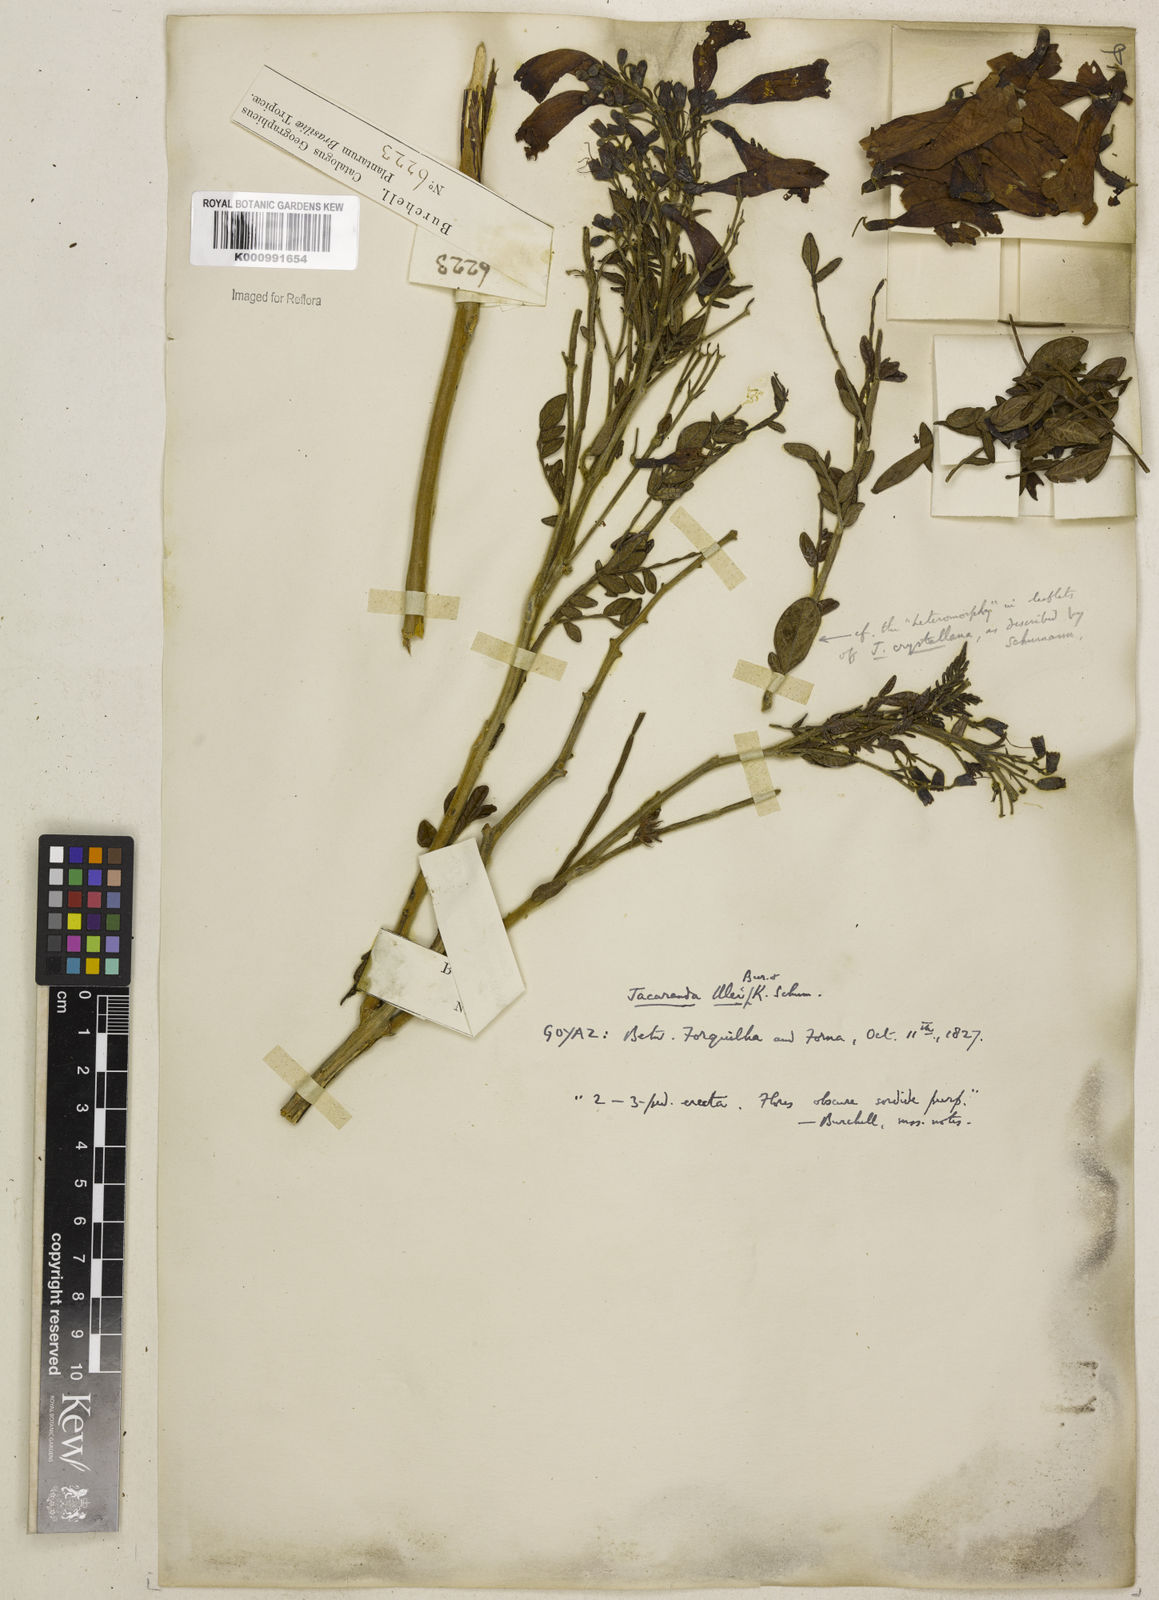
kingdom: Plantae
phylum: Tracheophyta
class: Magnoliopsida
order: Lamiales
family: Bignoniaceae
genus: Jacaranda
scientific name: Jacaranda ulei
